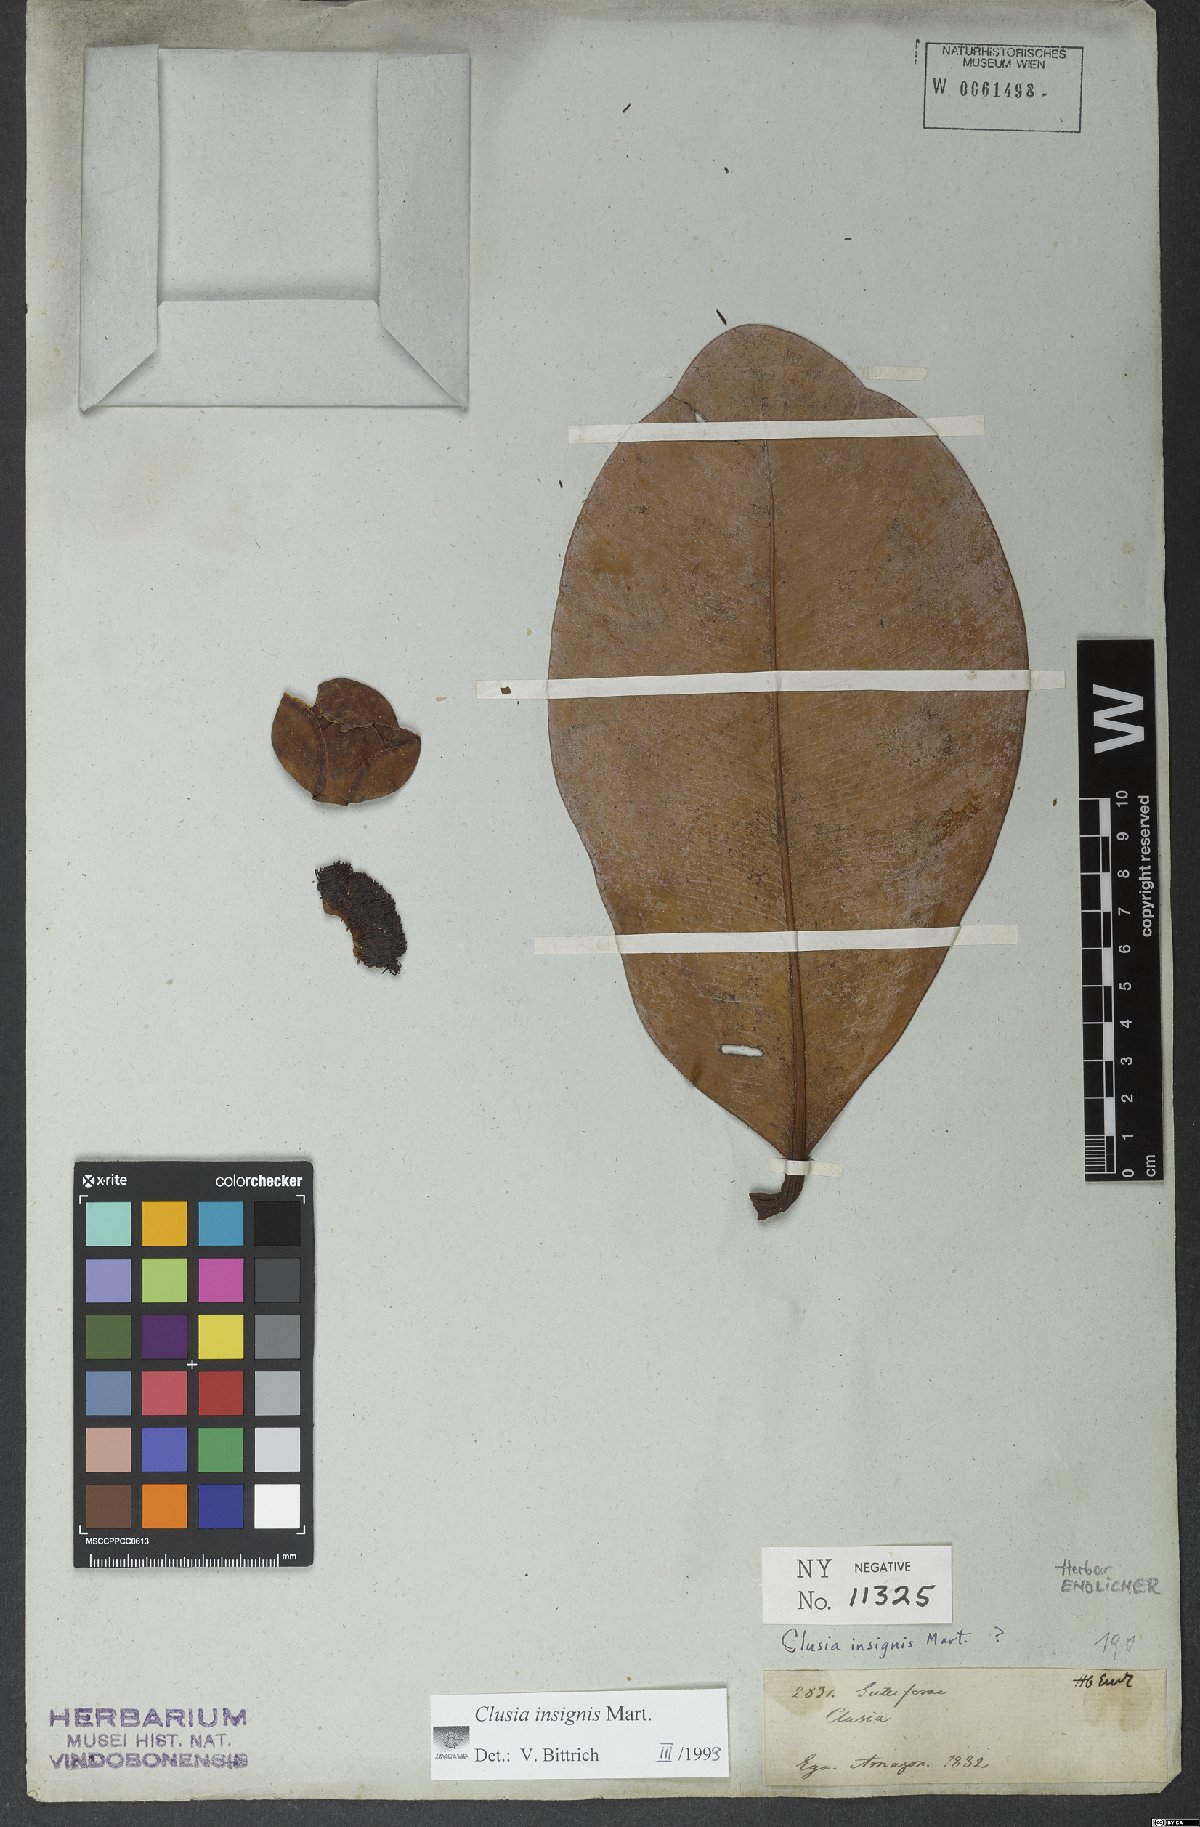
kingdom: Plantae
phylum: Tracheophyta
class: Magnoliopsida
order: Malpighiales
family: Clusiaceae
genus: Clusia
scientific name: Clusia insignis
